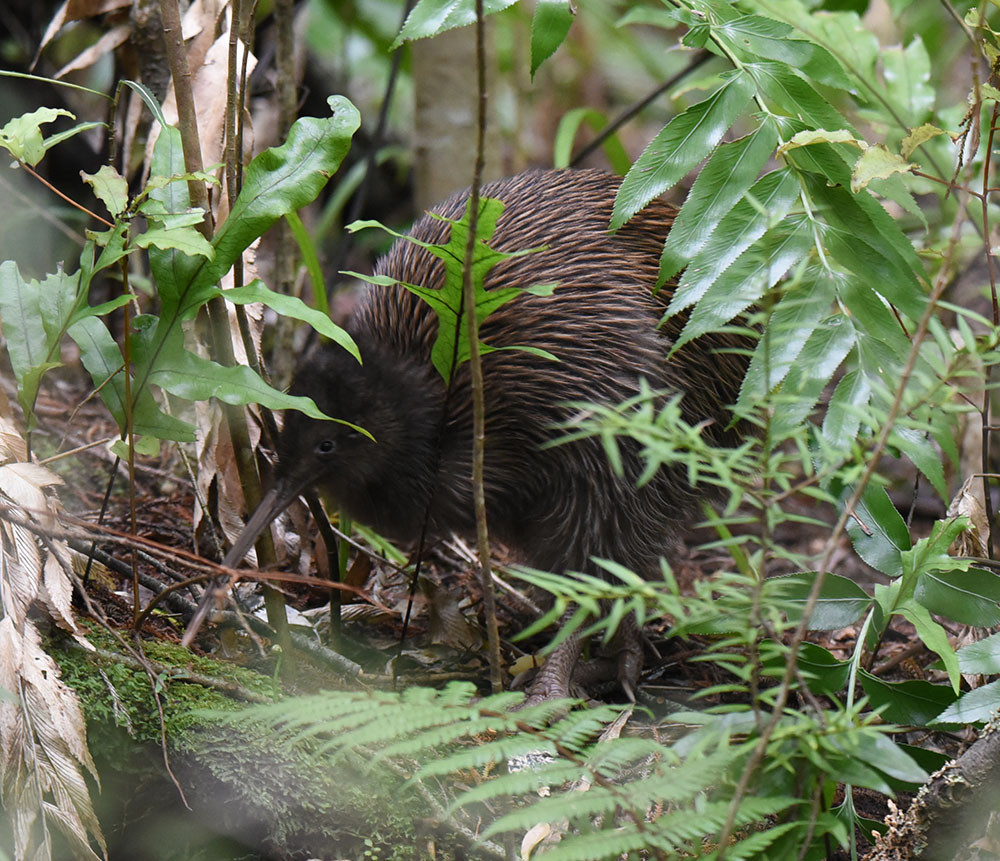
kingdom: Animalia
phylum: Chordata
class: Aves
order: Apterygiformes
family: Apterygidae
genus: Apteryx
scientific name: Apteryx australis
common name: Southern brown kiwi
